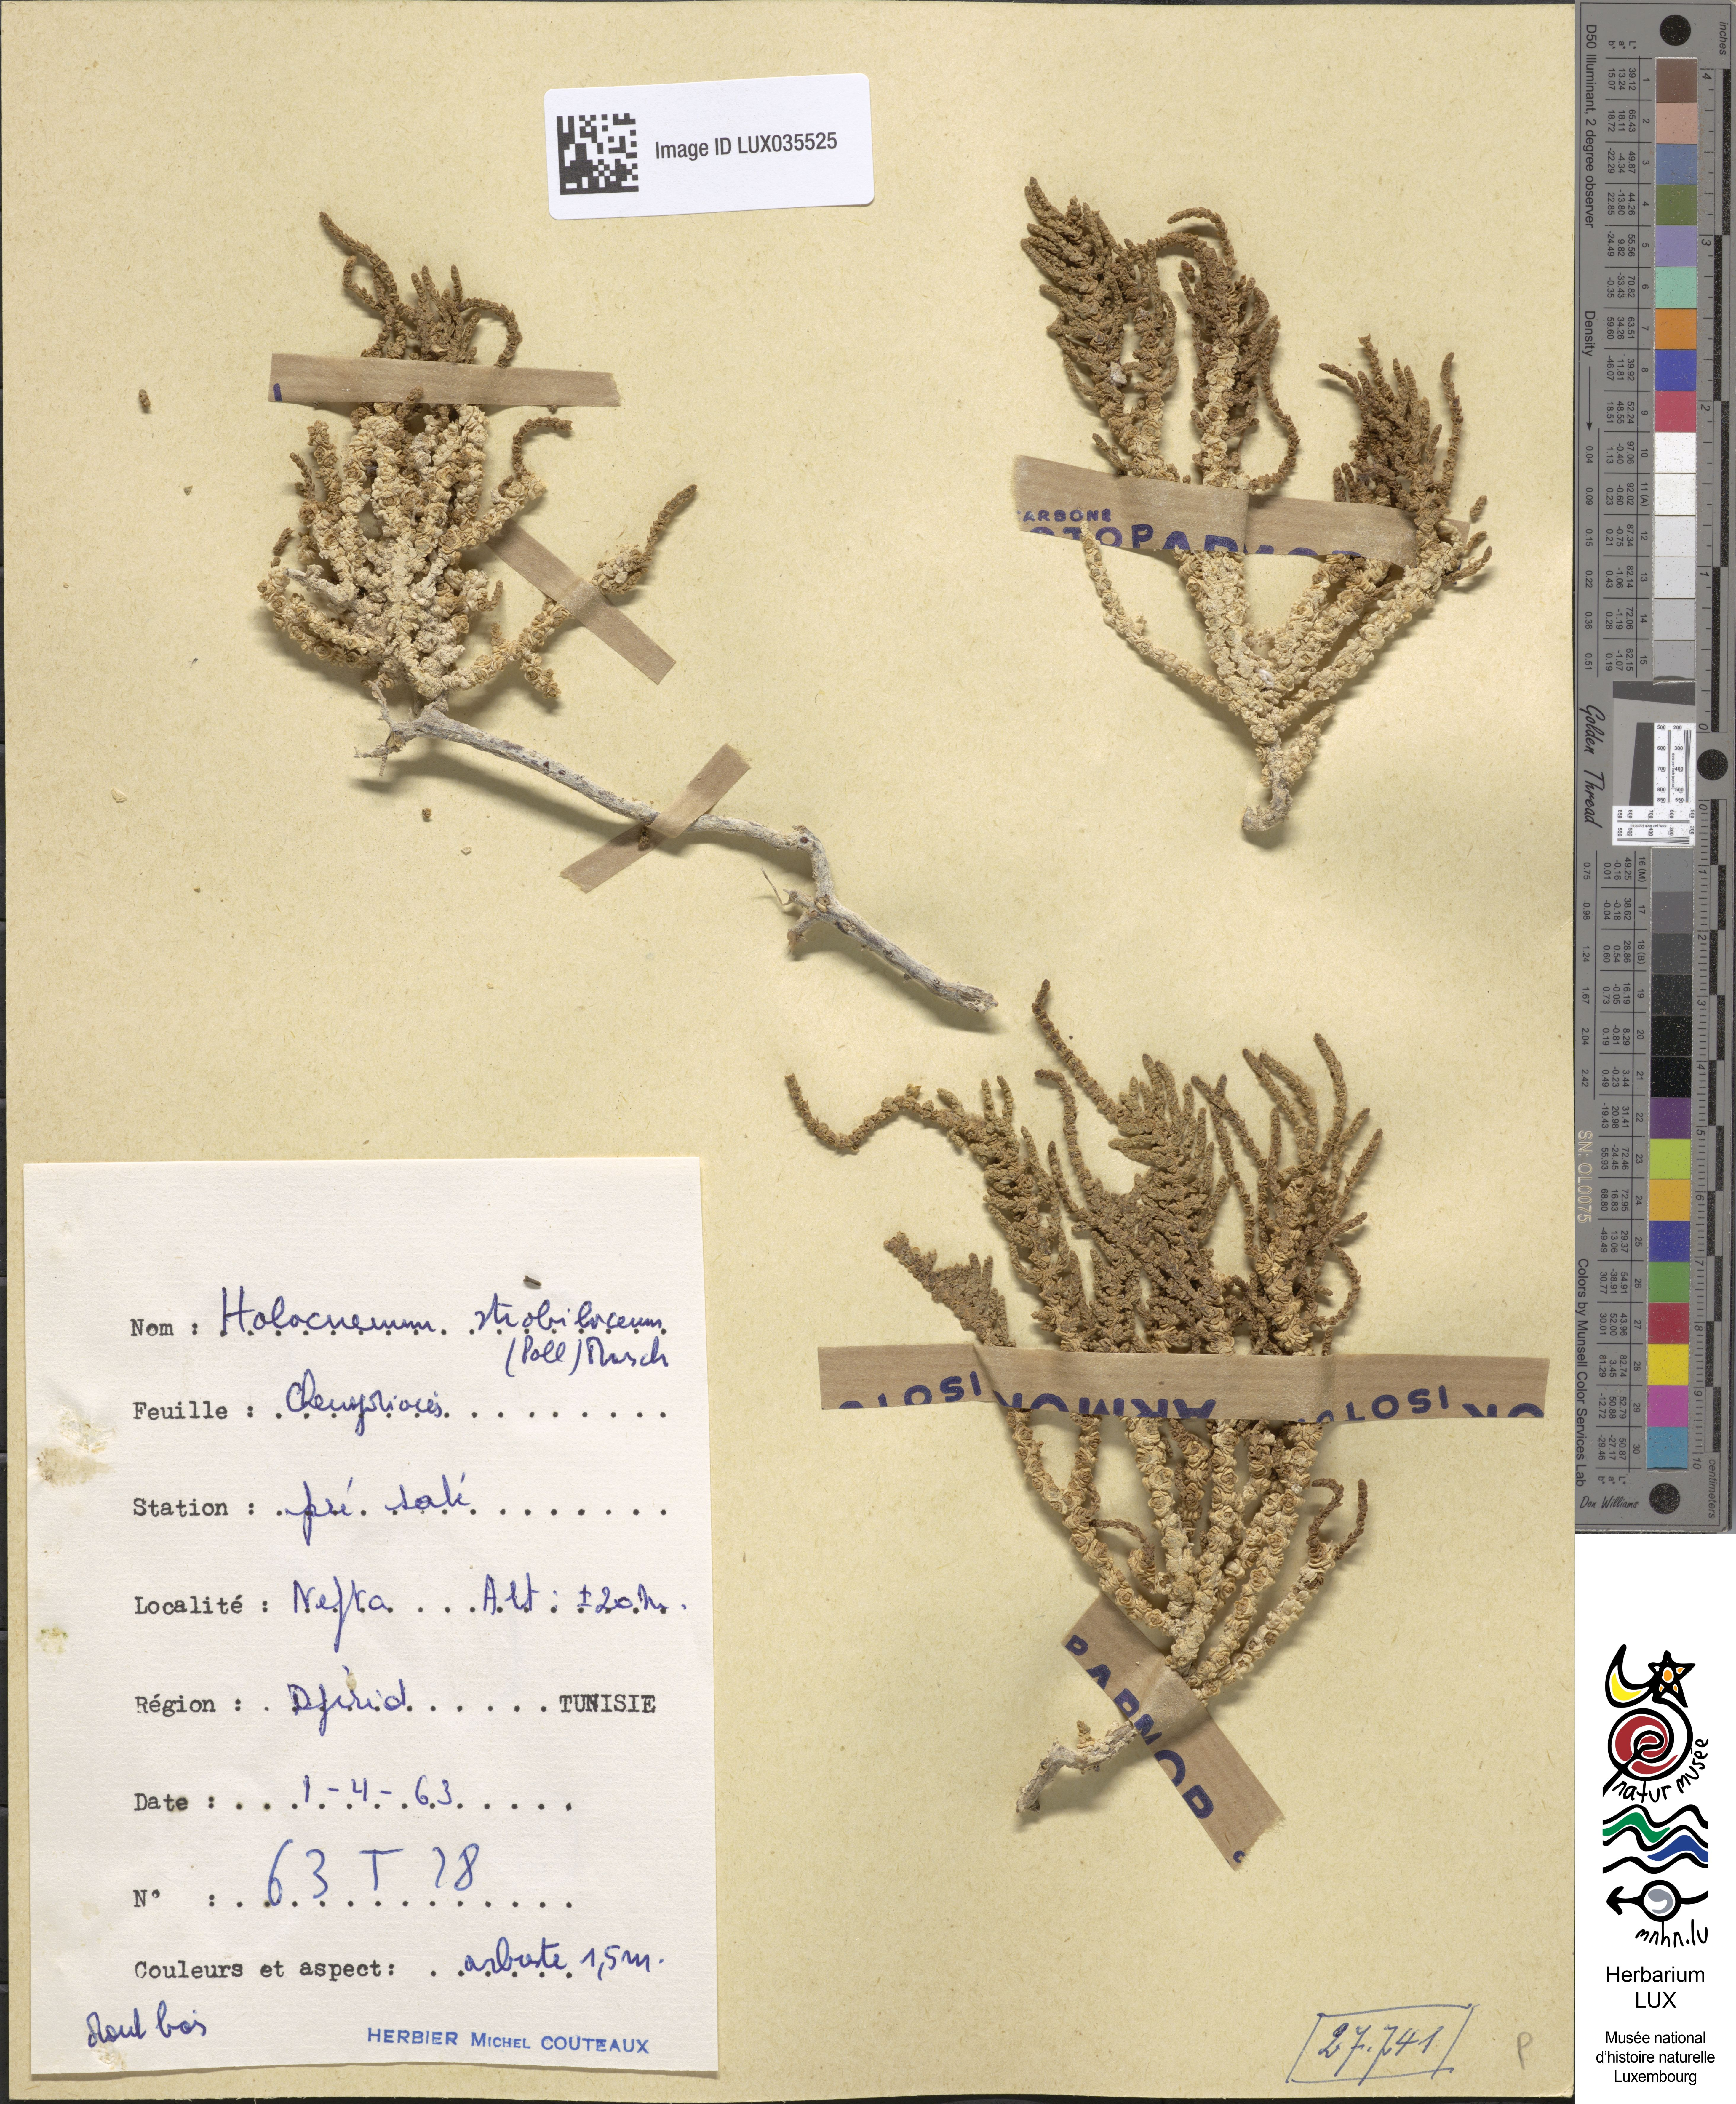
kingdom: Plantae
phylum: Tracheophyta
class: Magnoliopsida
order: Caryophyllales
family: Amaranthaceae
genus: Halocnemum
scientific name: Halocnemum strobilaceum
